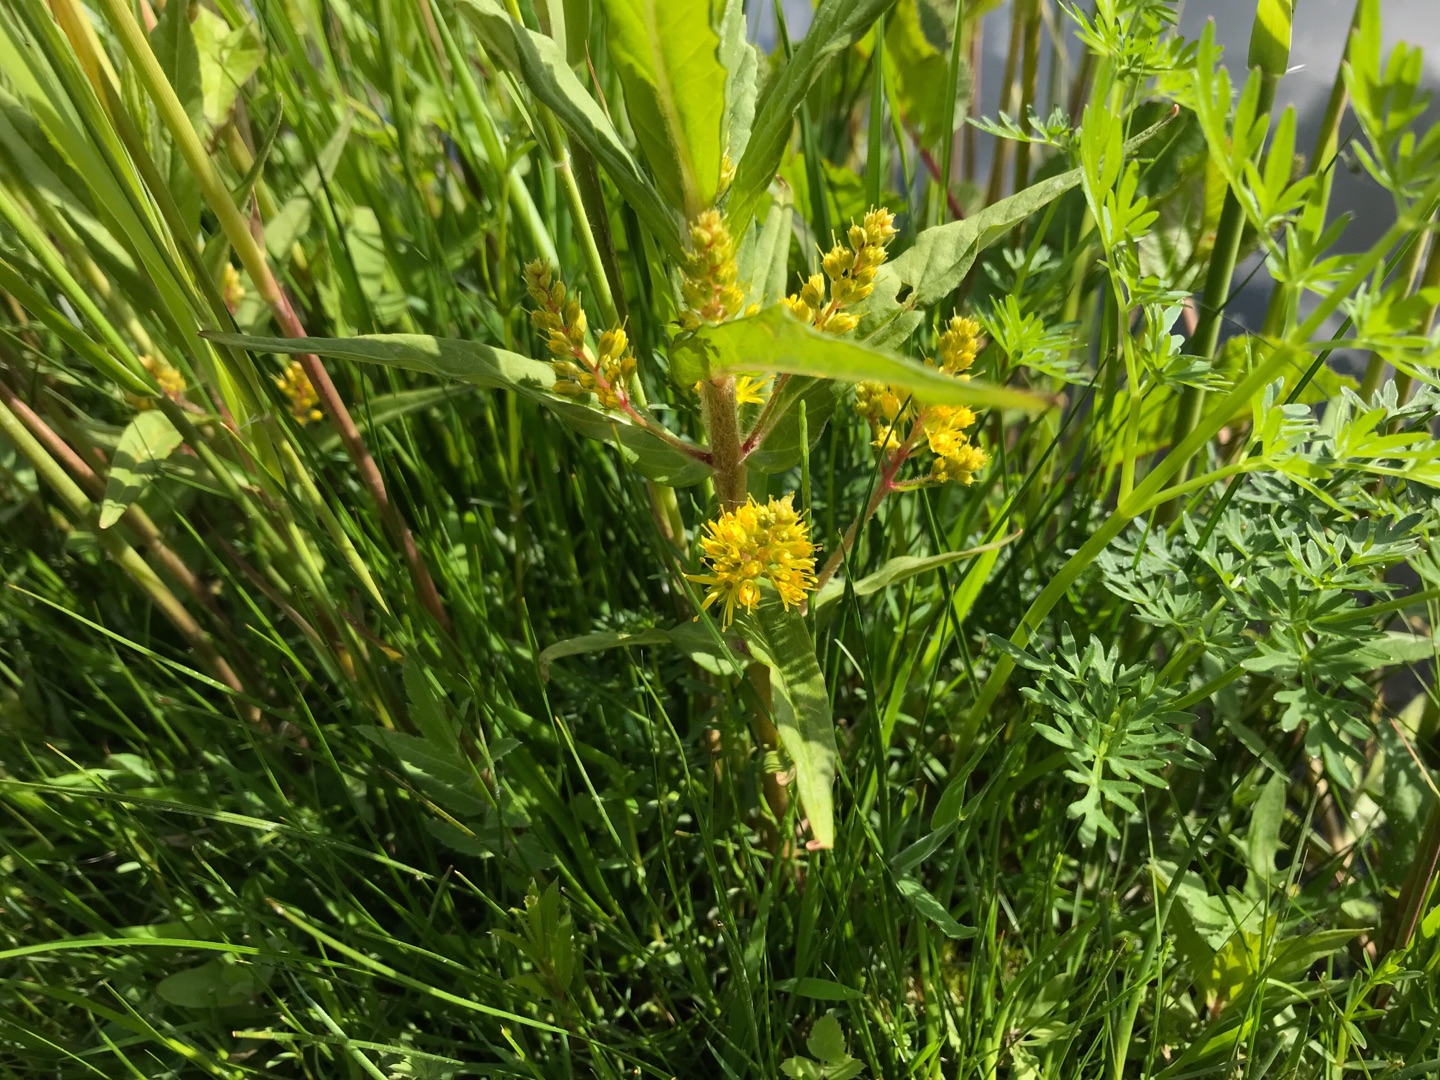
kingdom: Plantae
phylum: Tracheophyta
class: Magnoliopsida
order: Ericales
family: Primulaceae
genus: Lysimachia
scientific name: Lysimachia thyrsiflora
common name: Dusk-fredløs
